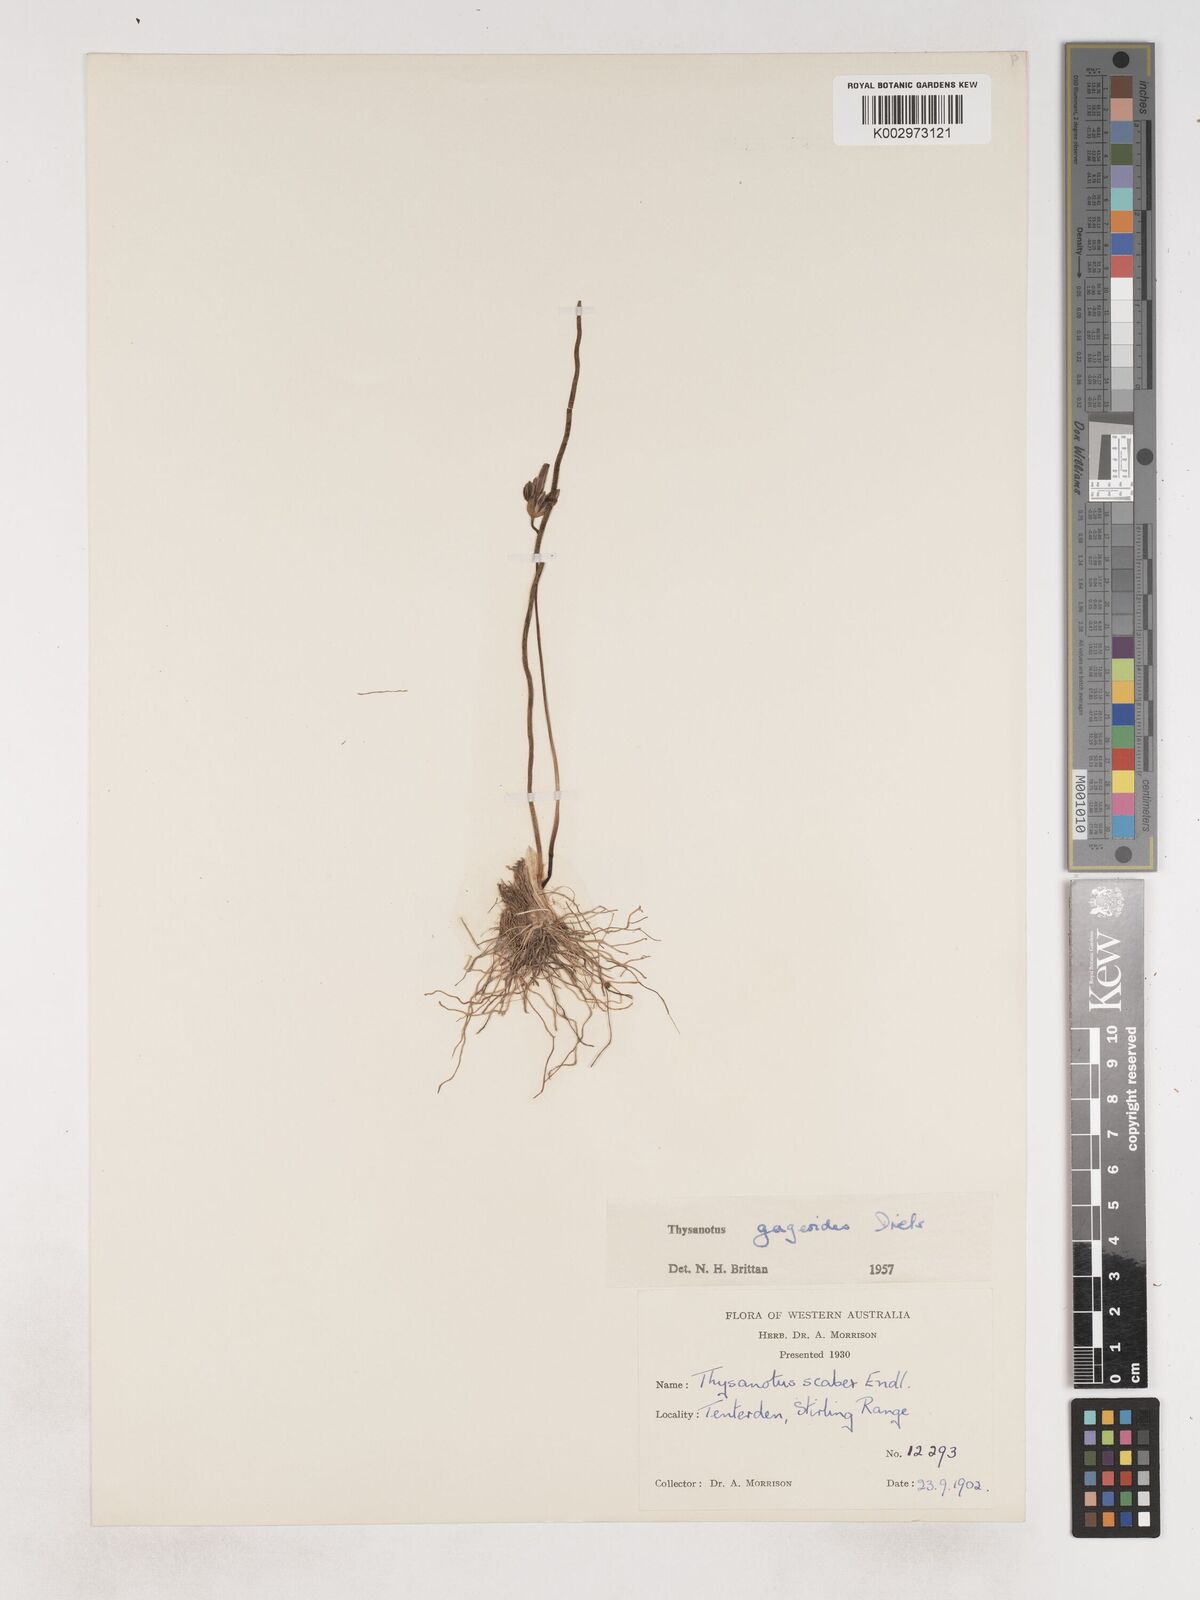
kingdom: Plantae
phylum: Tracheophyta
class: Liliopsida
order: Asparagales
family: Asparagaceae
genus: Thysanotus
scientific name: Thysanotus gageoides
